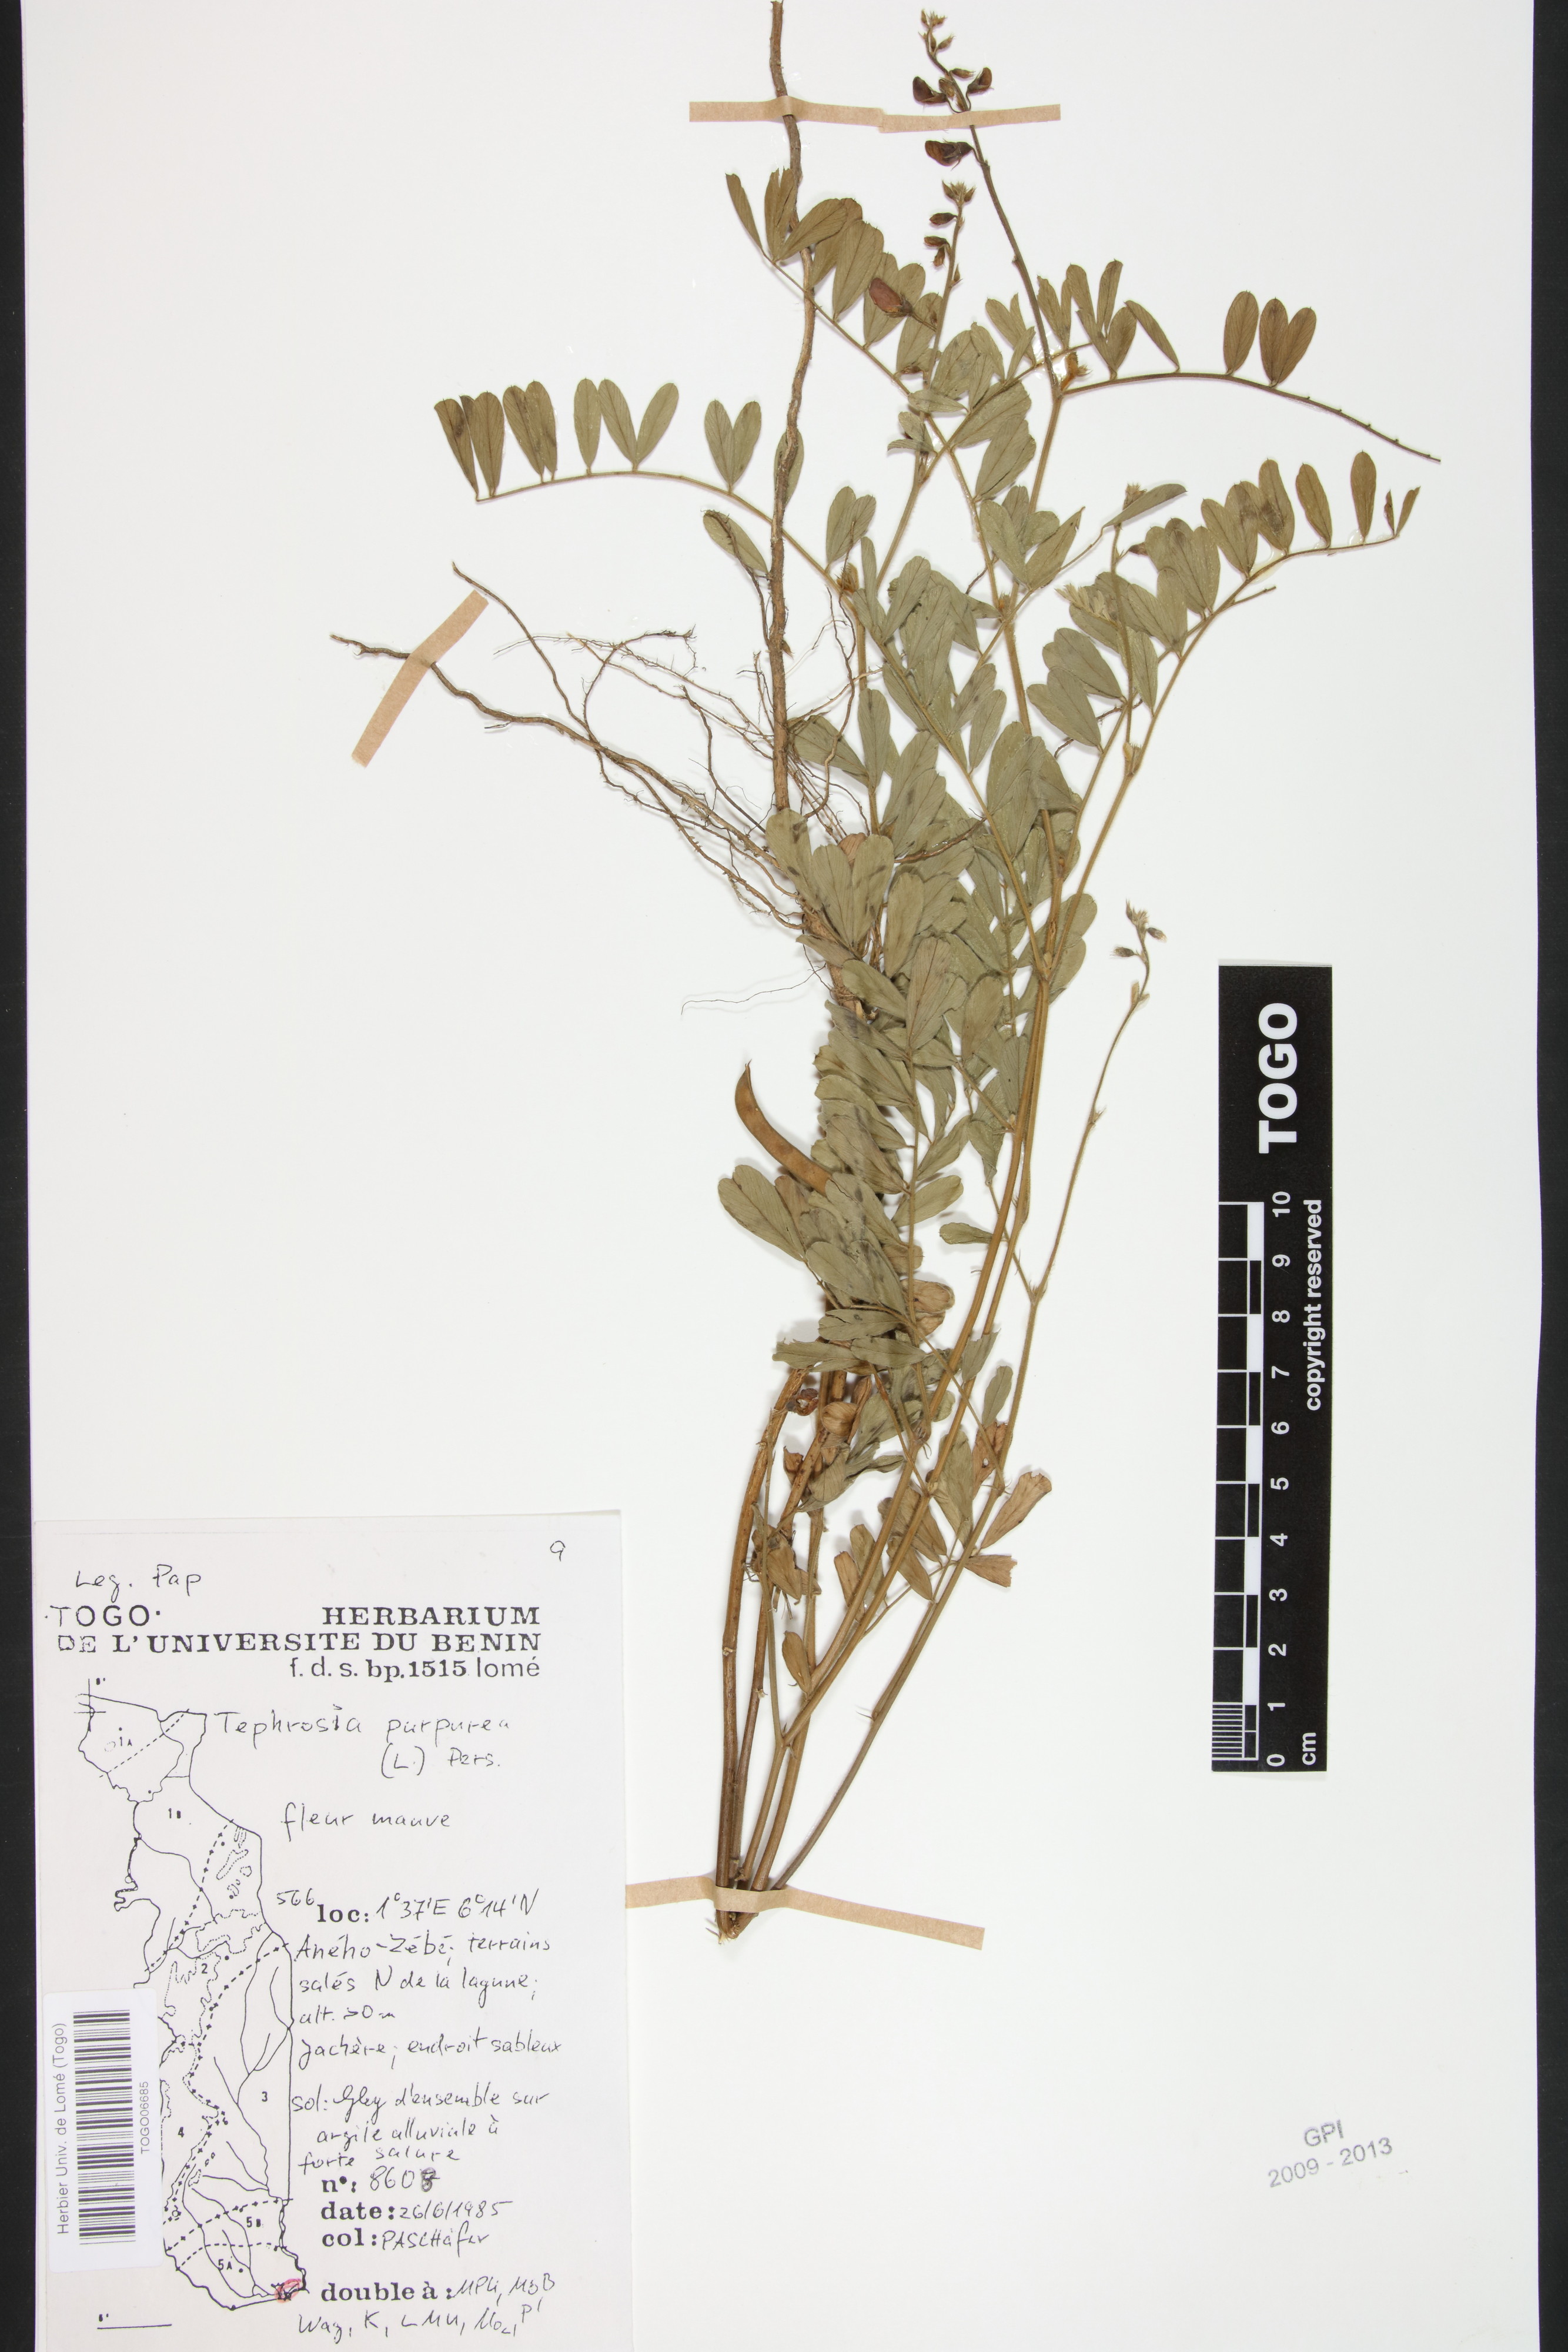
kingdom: Plantae
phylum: Tracheophyta
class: Magnoliopsida
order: Fabales
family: Fabaceae
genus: Tephrosia
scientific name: Tephrosia purpurea
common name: Fishpoison
